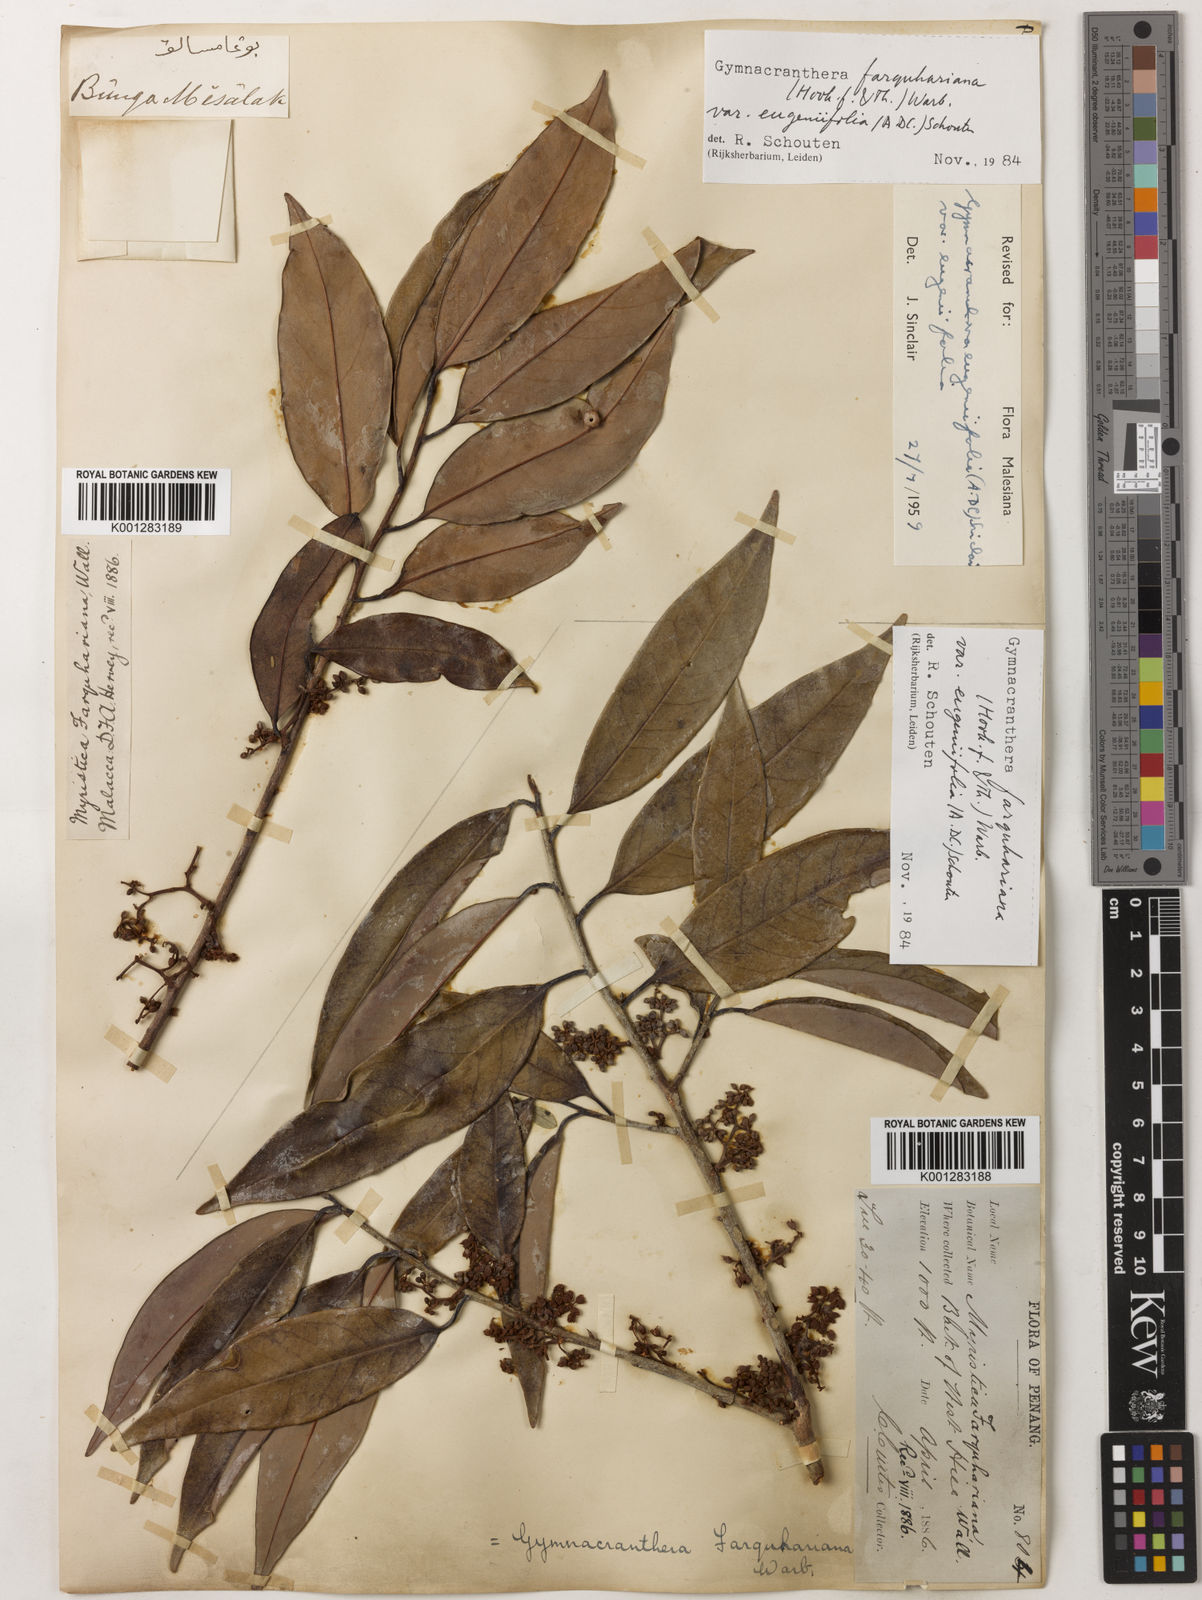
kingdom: Plantae
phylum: Tracheophyta
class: Magnoliopsida
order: Magnoliales
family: Myristicaceae
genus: Gymnacranthera
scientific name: Gymnacranthera farquhariana
